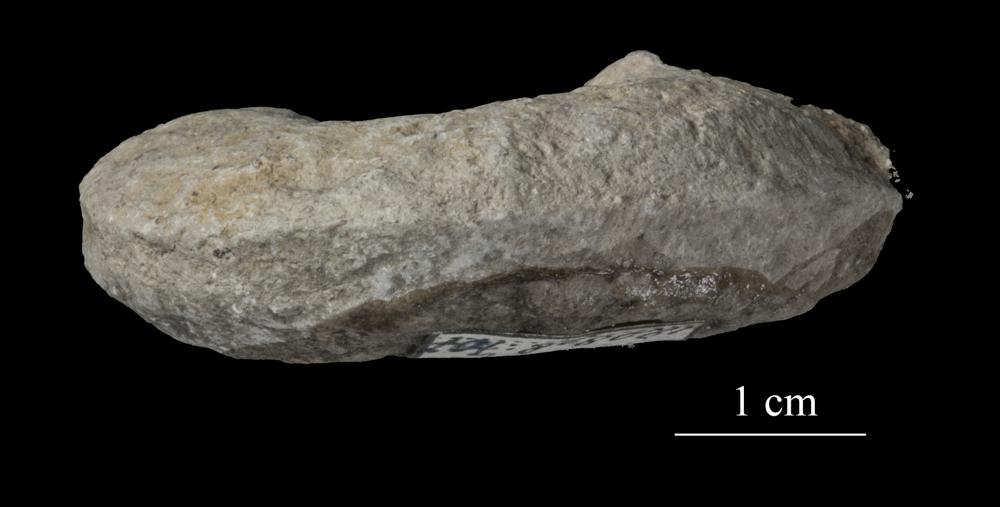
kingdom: Animalia
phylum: Mollusca
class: Gastropoda
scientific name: Gastropoda
